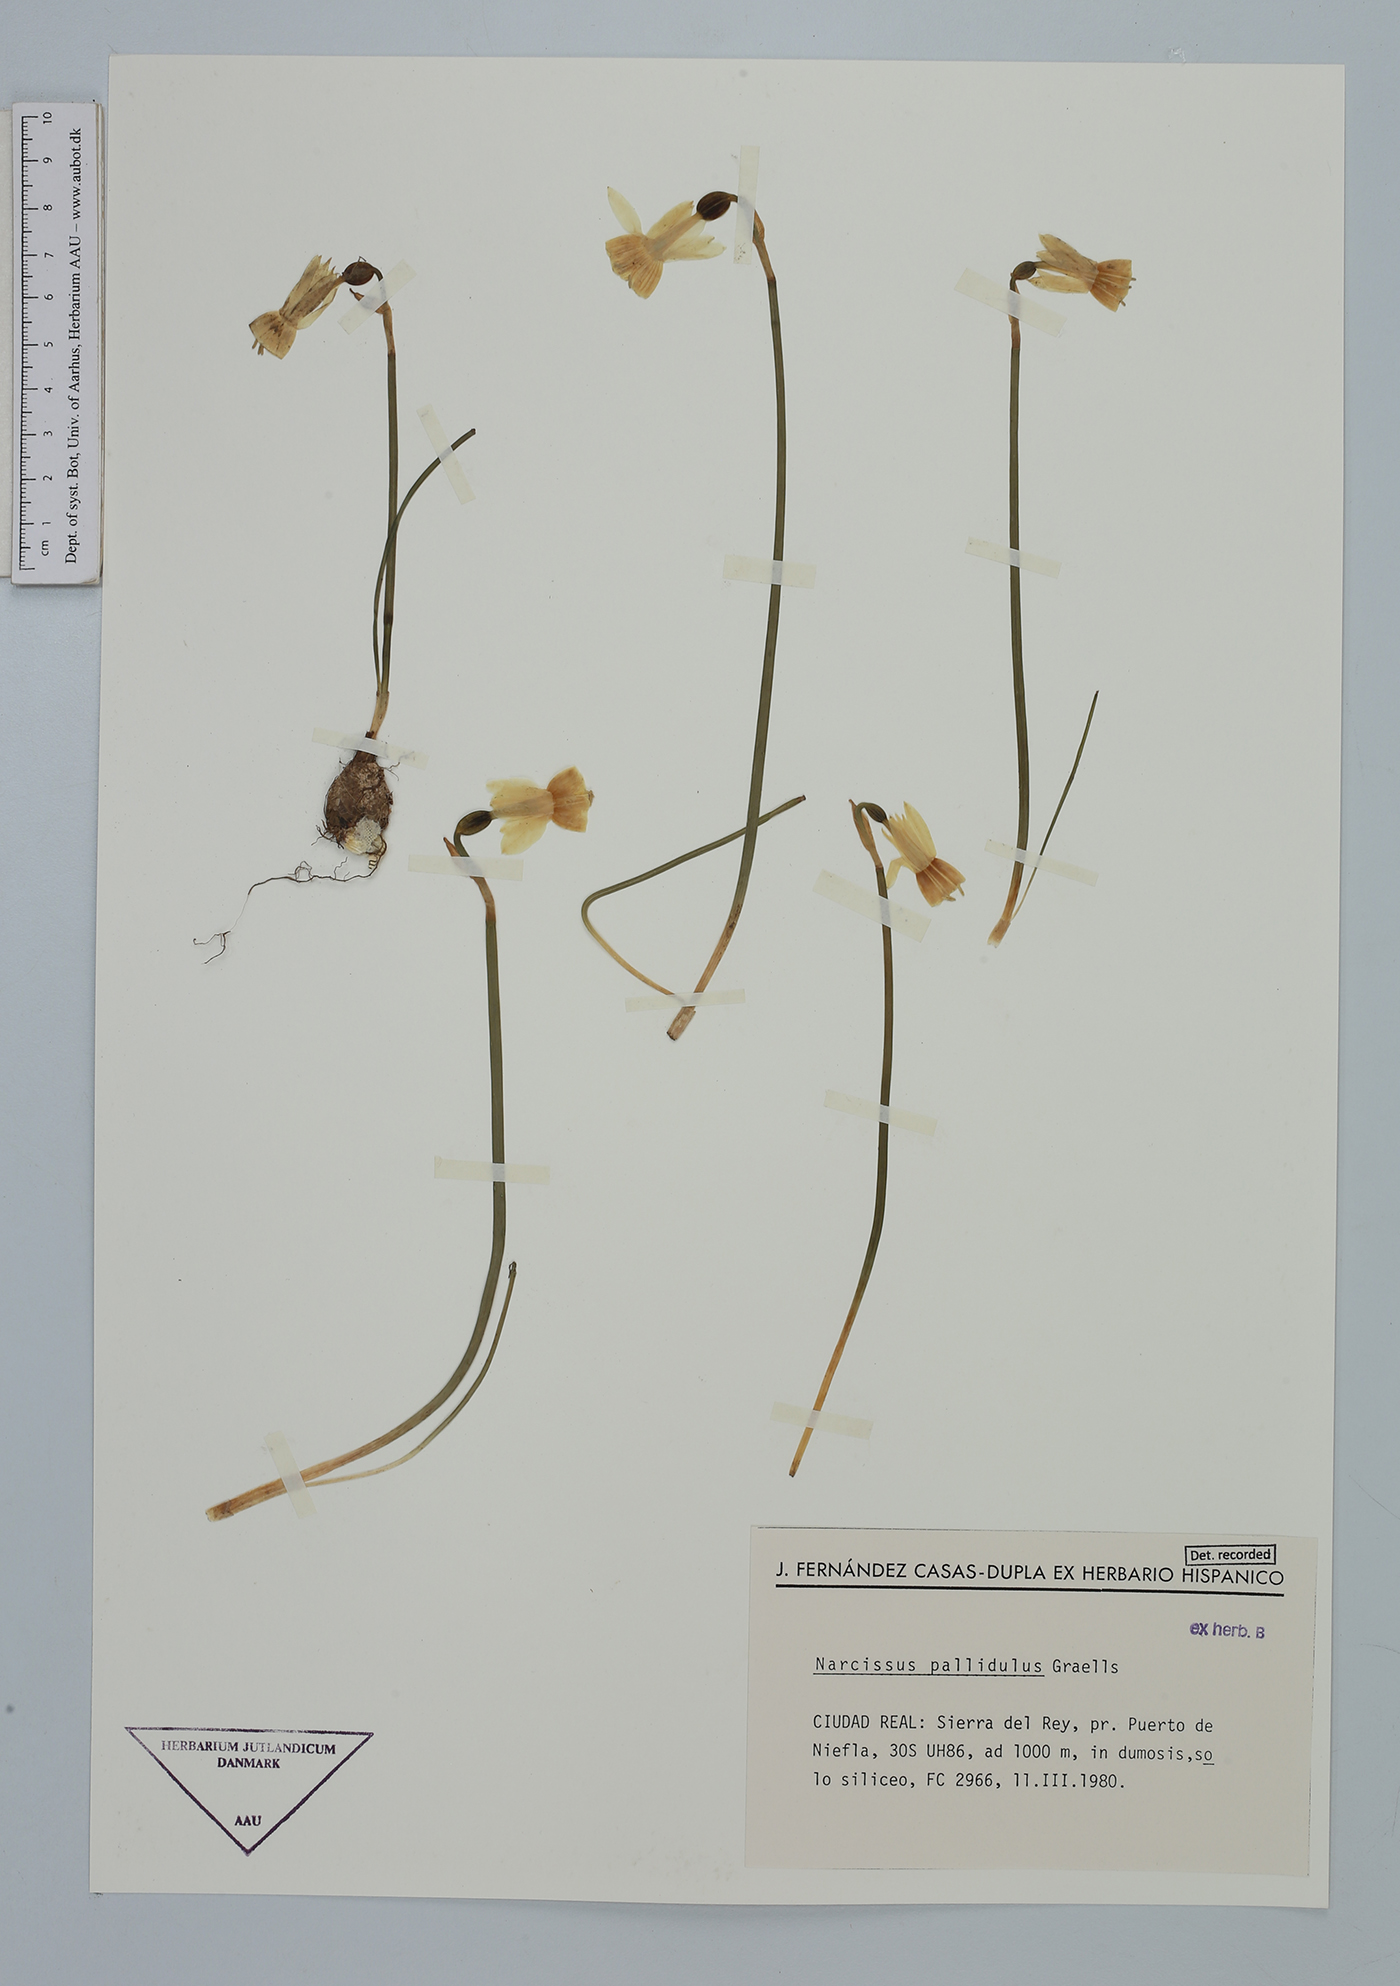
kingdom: Plantae
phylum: Tracheophyta
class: Liliopsida
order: Asparagales
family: Amaryllidaceae
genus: Narcissus
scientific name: Narcissus triandrus
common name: Angel's-tears
